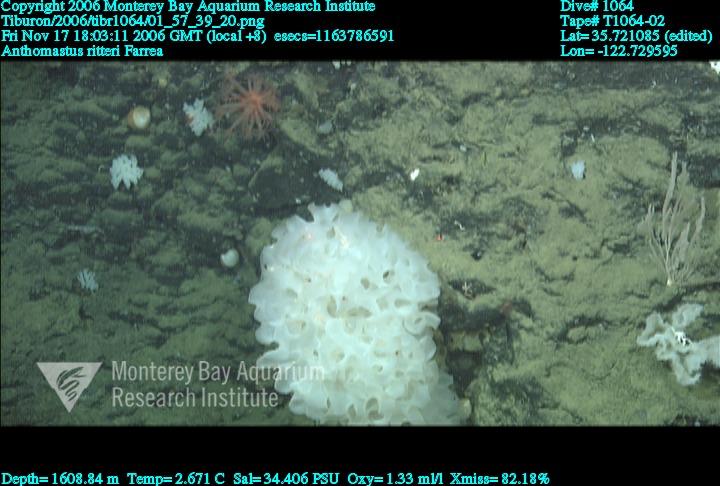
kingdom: Animalia
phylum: Porifera
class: Hexactinellida
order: Sceptrulophora
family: Farreidae
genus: Farrea
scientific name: Farrea
